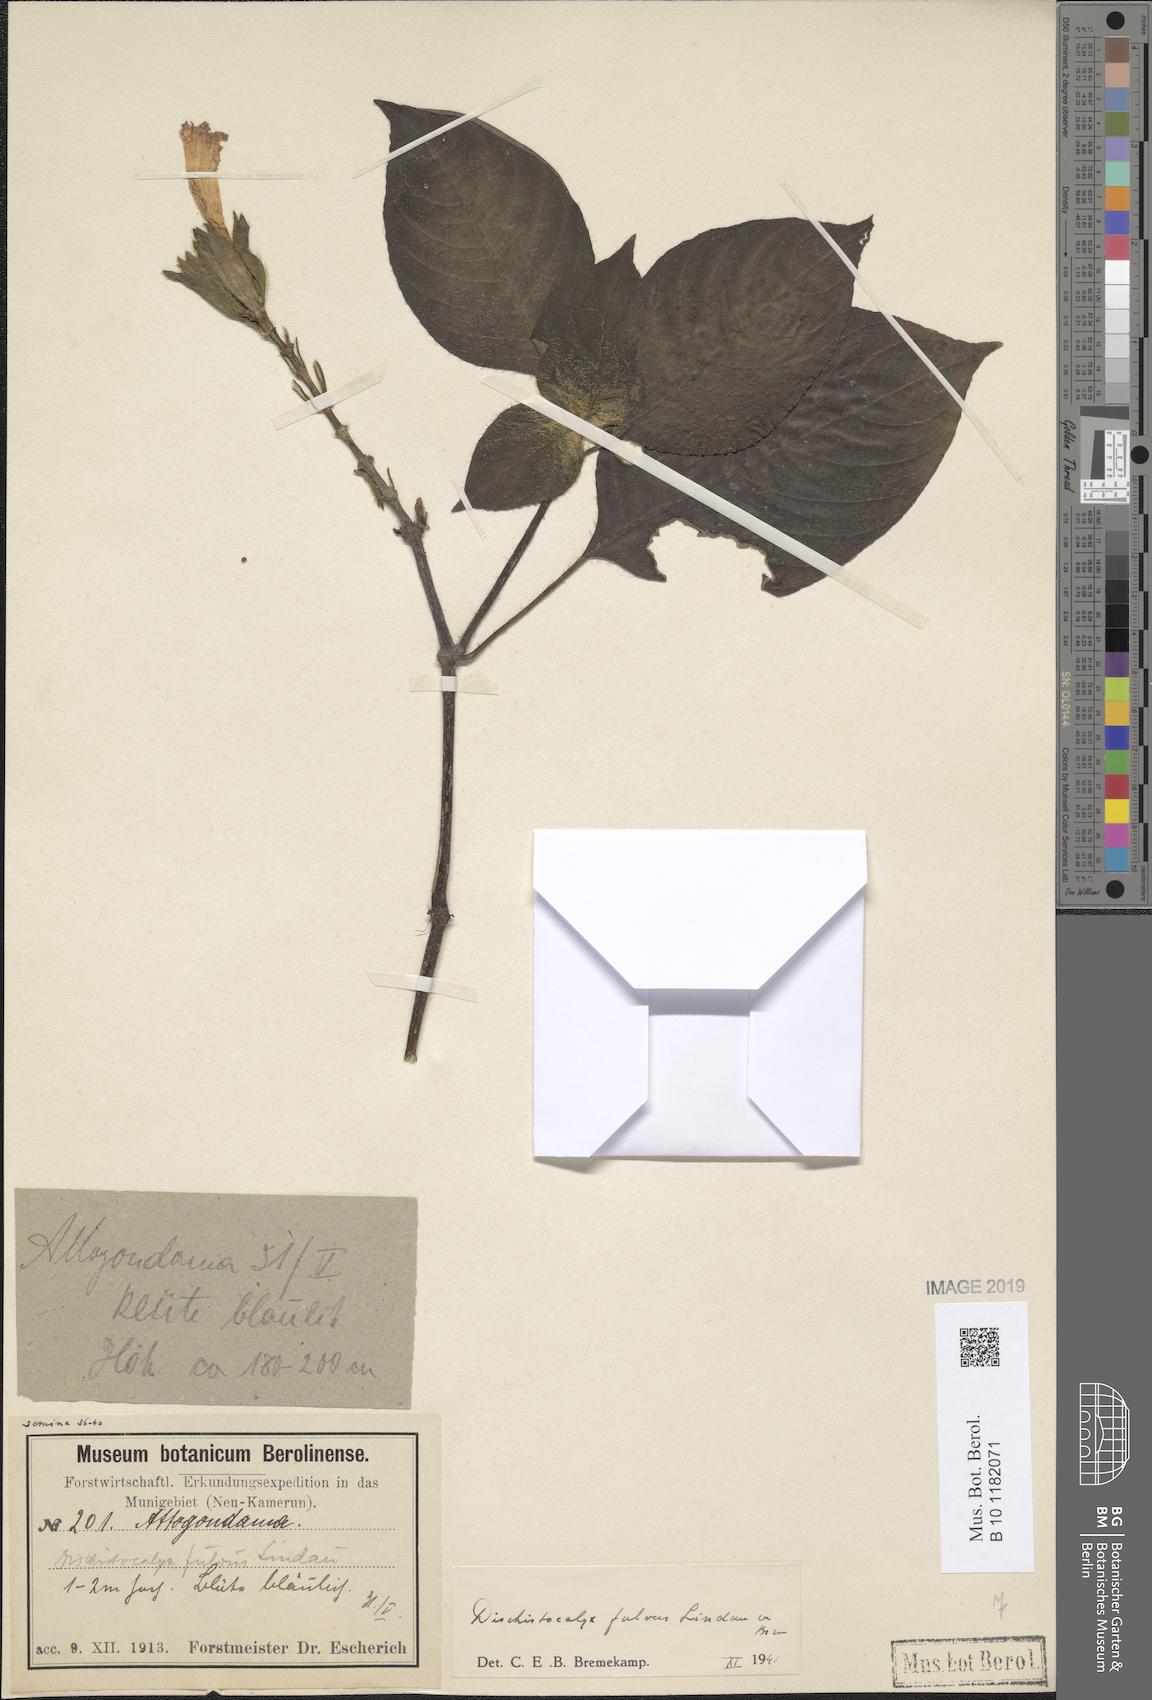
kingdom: Plantae
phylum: Tracheophyta
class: Magnoliopsida
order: Lamiales
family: Acanthaceae
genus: Dischistocalyx
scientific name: Dischistocalyx hirsutus
